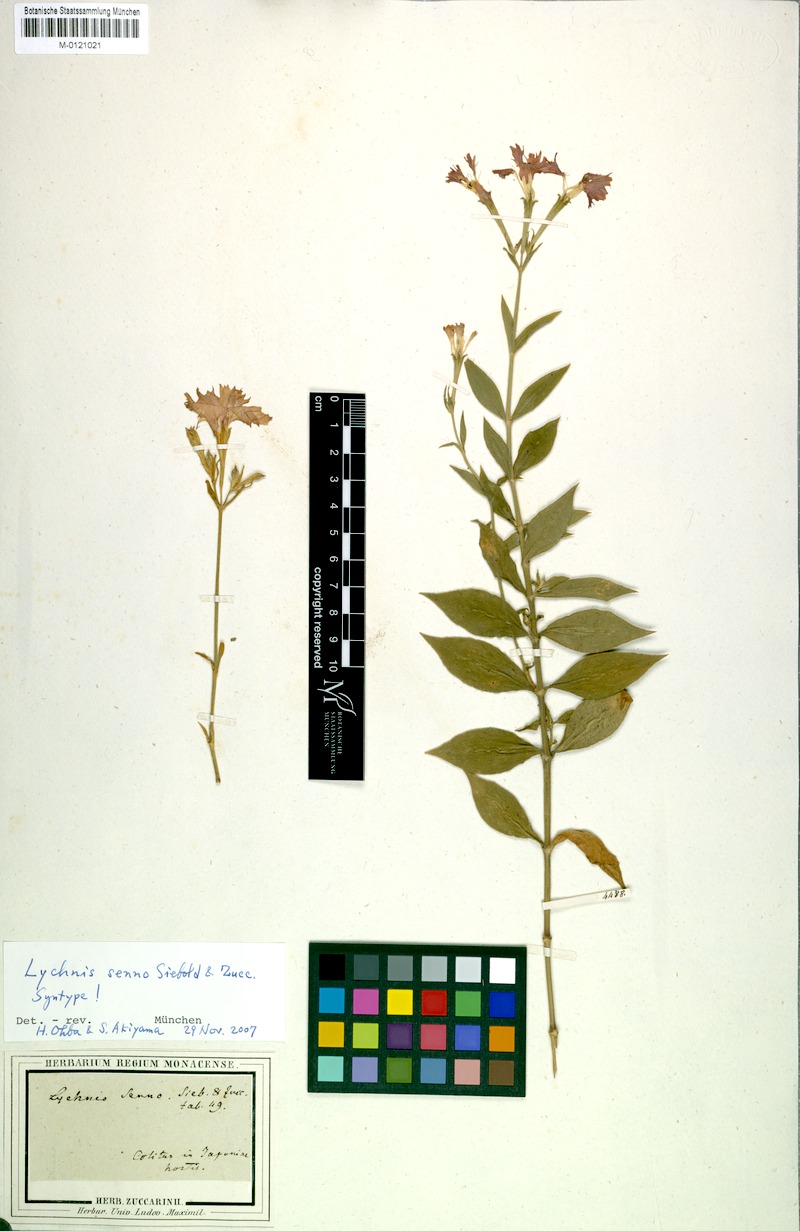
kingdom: Plantae
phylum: Tracheophyta
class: Magnoliopsida
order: Caryophyllales
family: Caryophyllaceae
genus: Silene
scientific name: Silene banksia
